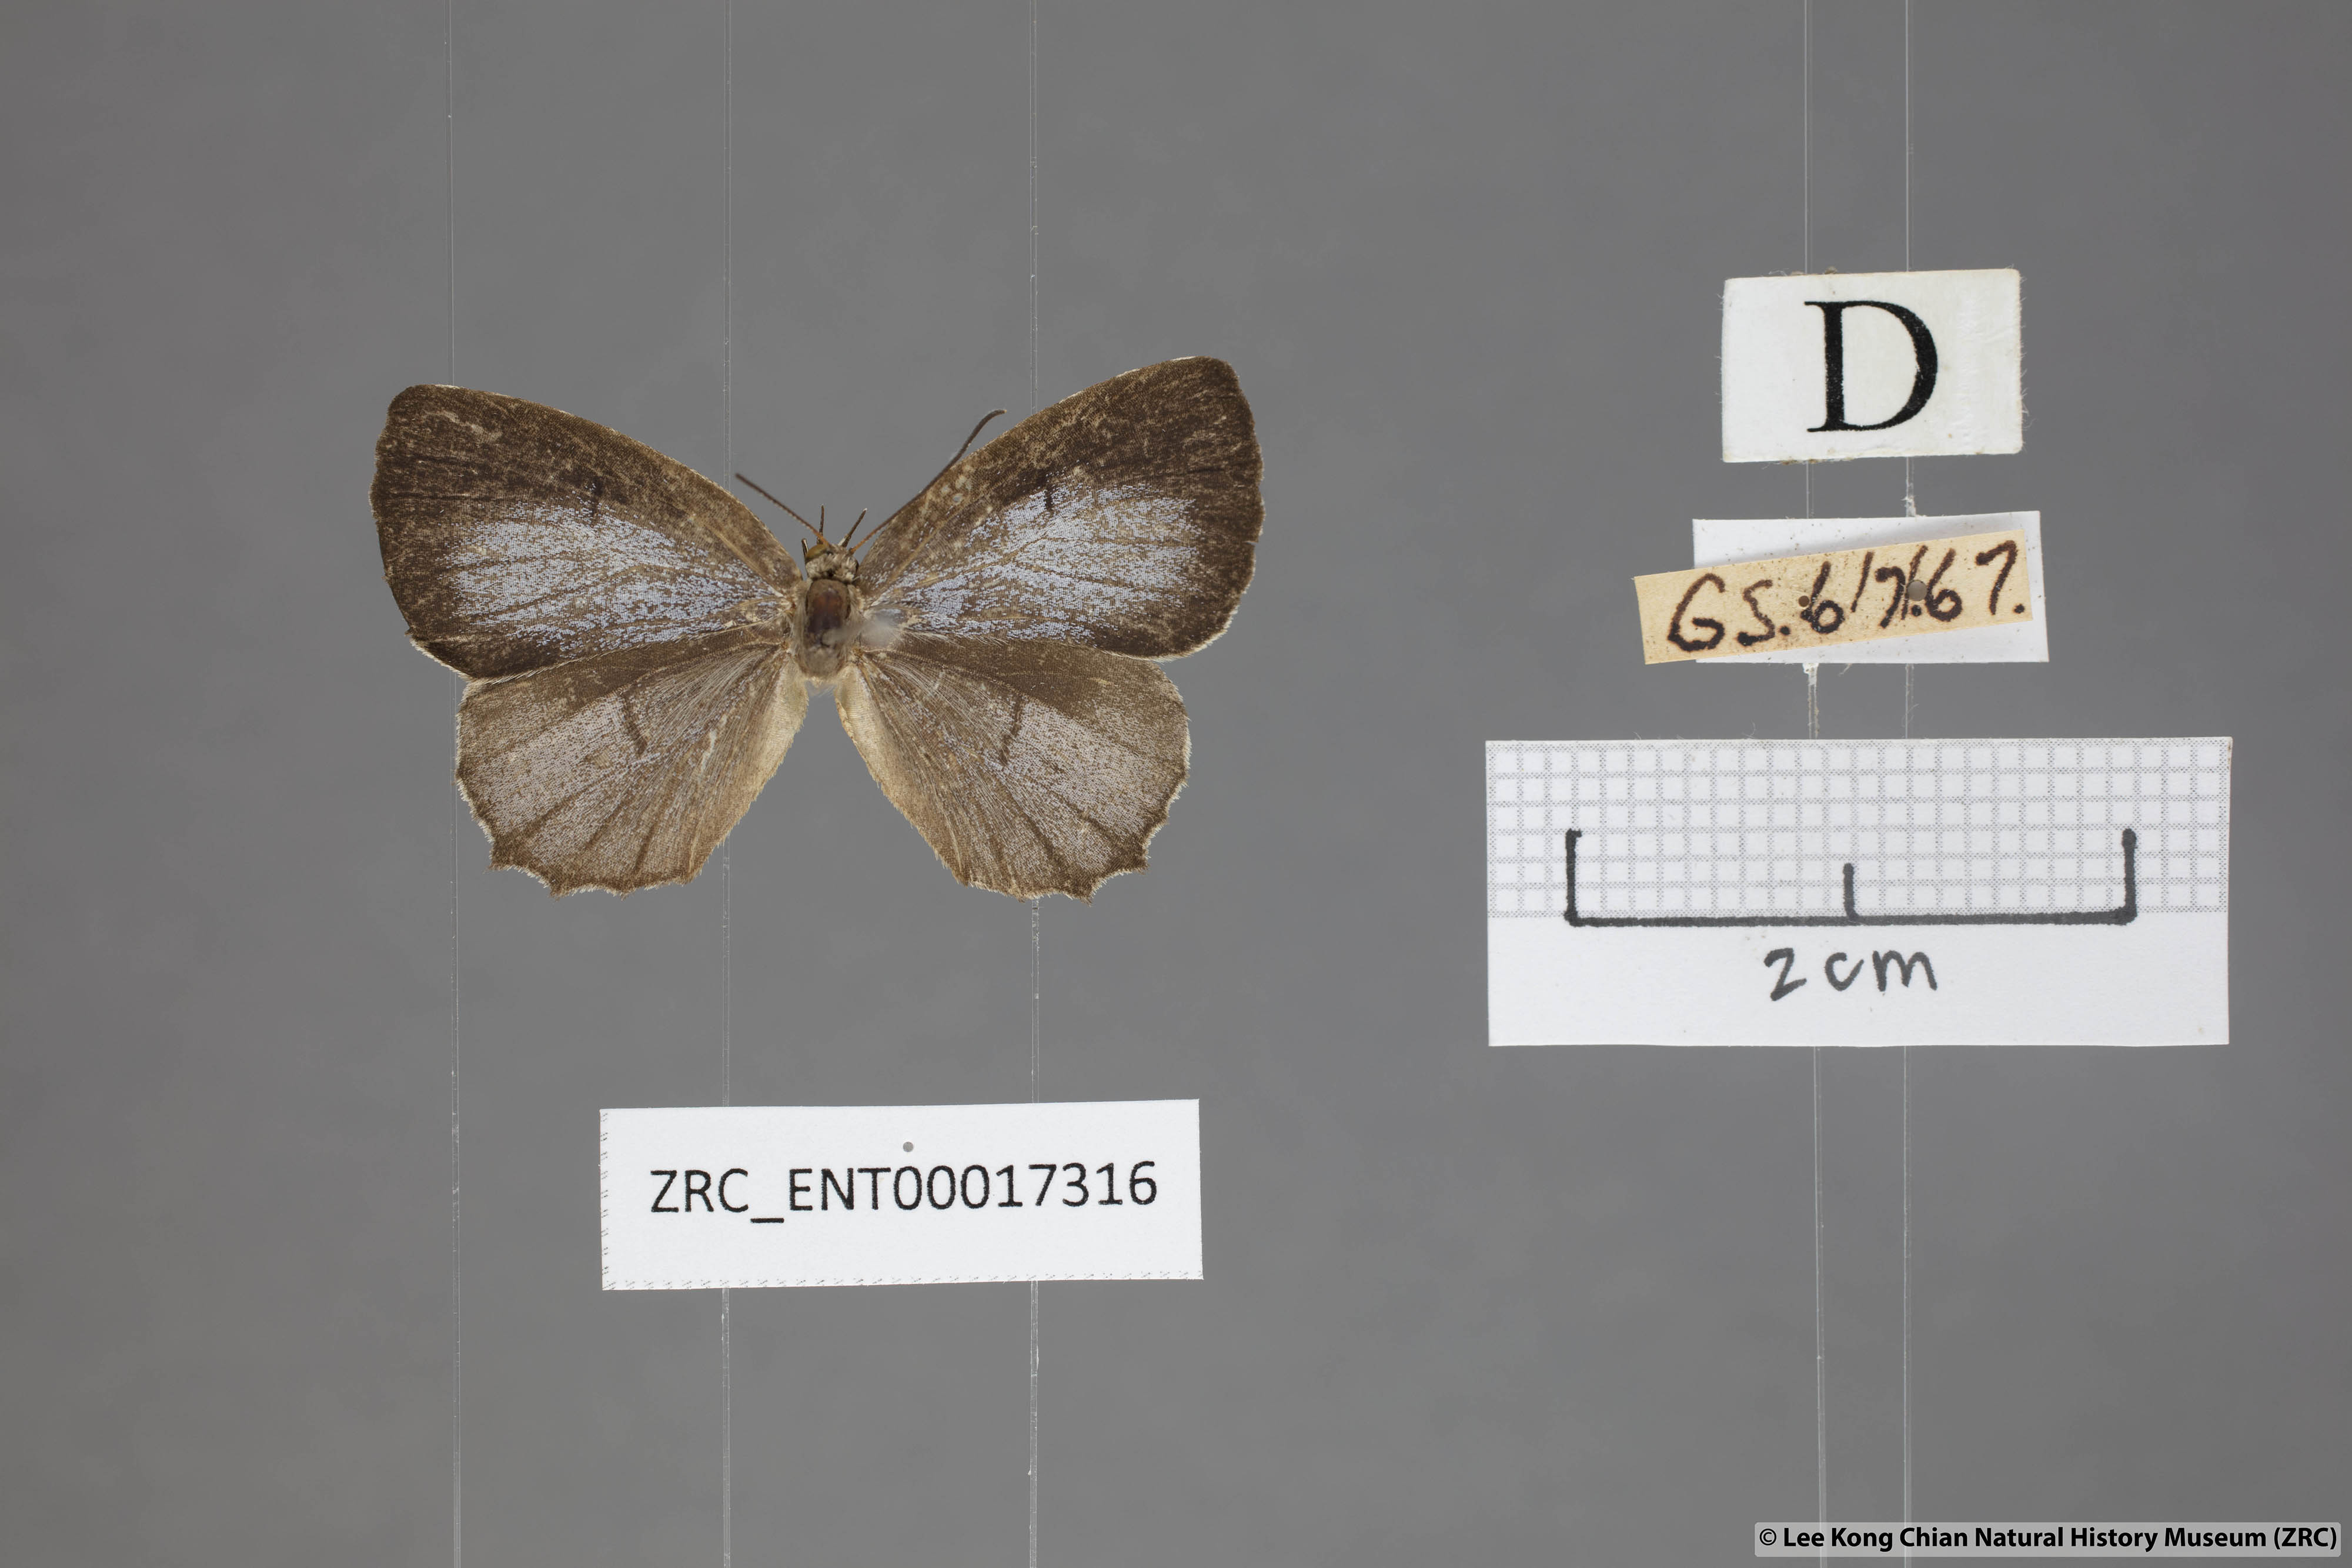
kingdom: Animalia
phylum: Arthropoda
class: Insecta
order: Lepidoptera
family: Lycaenidae
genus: Allotinus
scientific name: Allotinus subviolaceus
